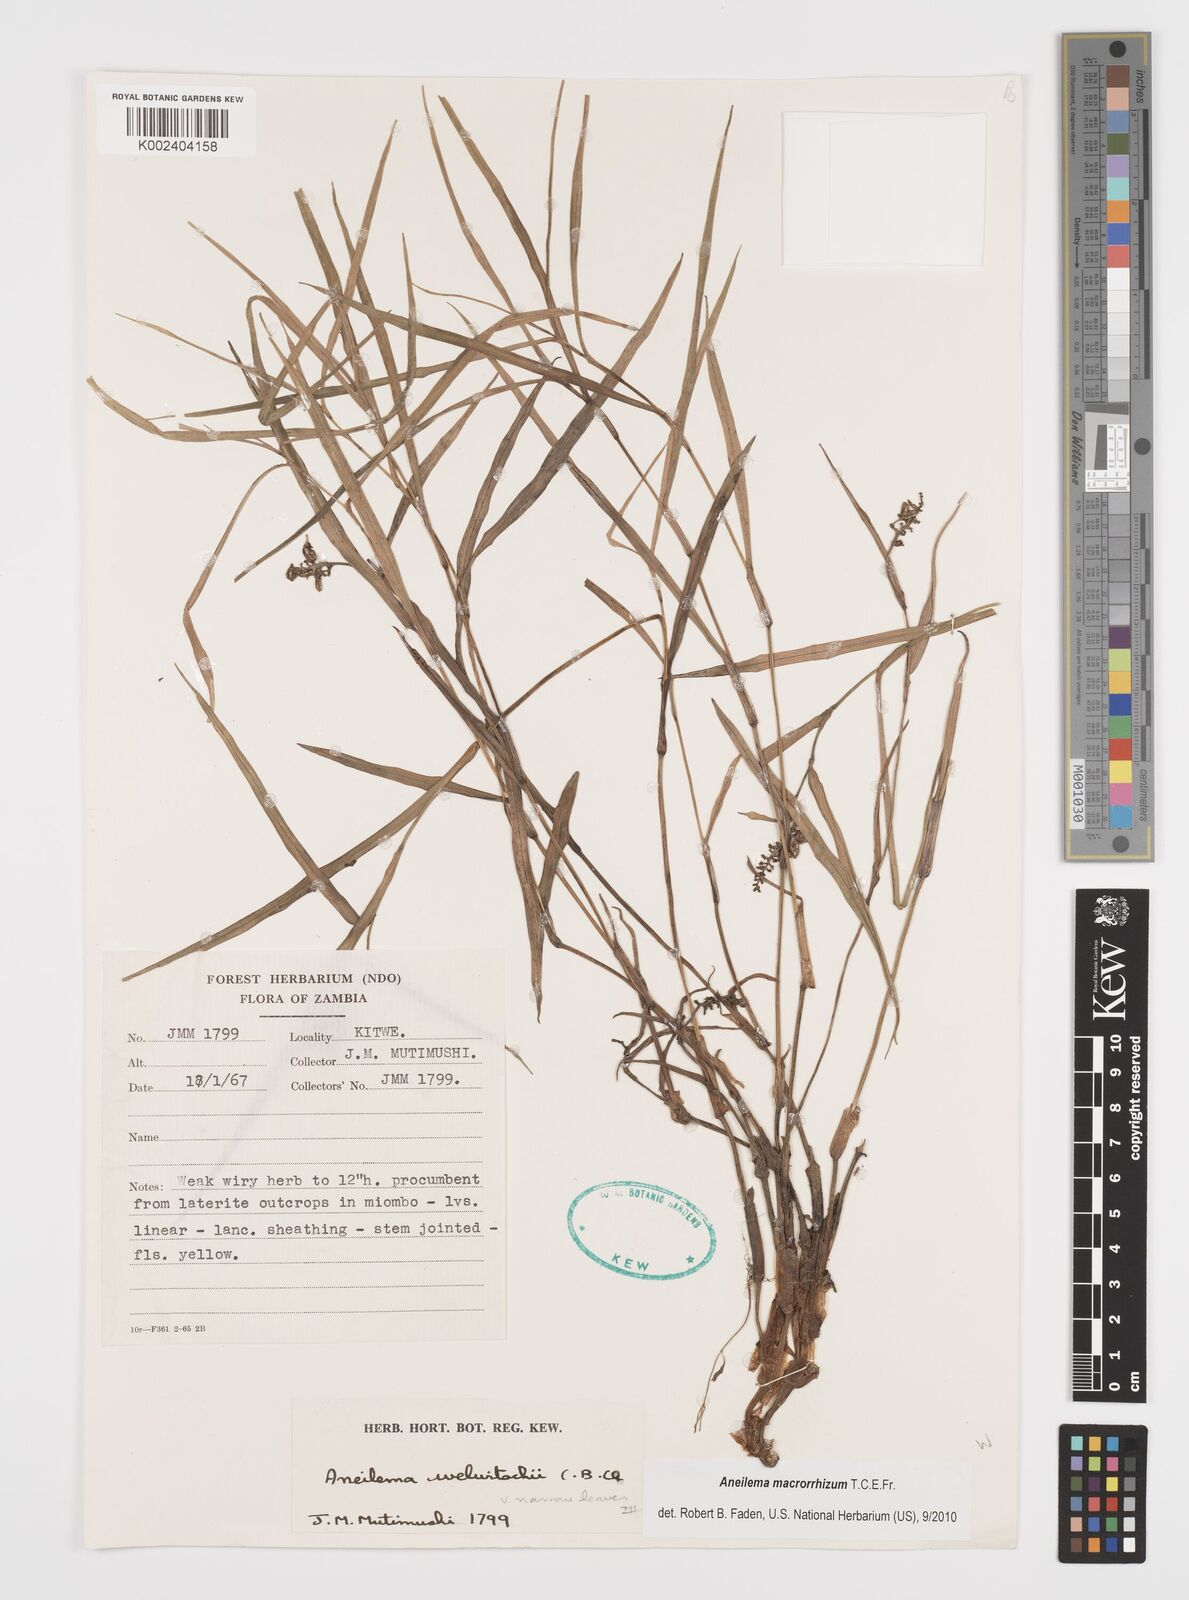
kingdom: Plantae
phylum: Tracheophyta
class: Liliopsida
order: Commelinales
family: Commelinaceae
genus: Aneilema
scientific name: Aneilema macrorrhizum
